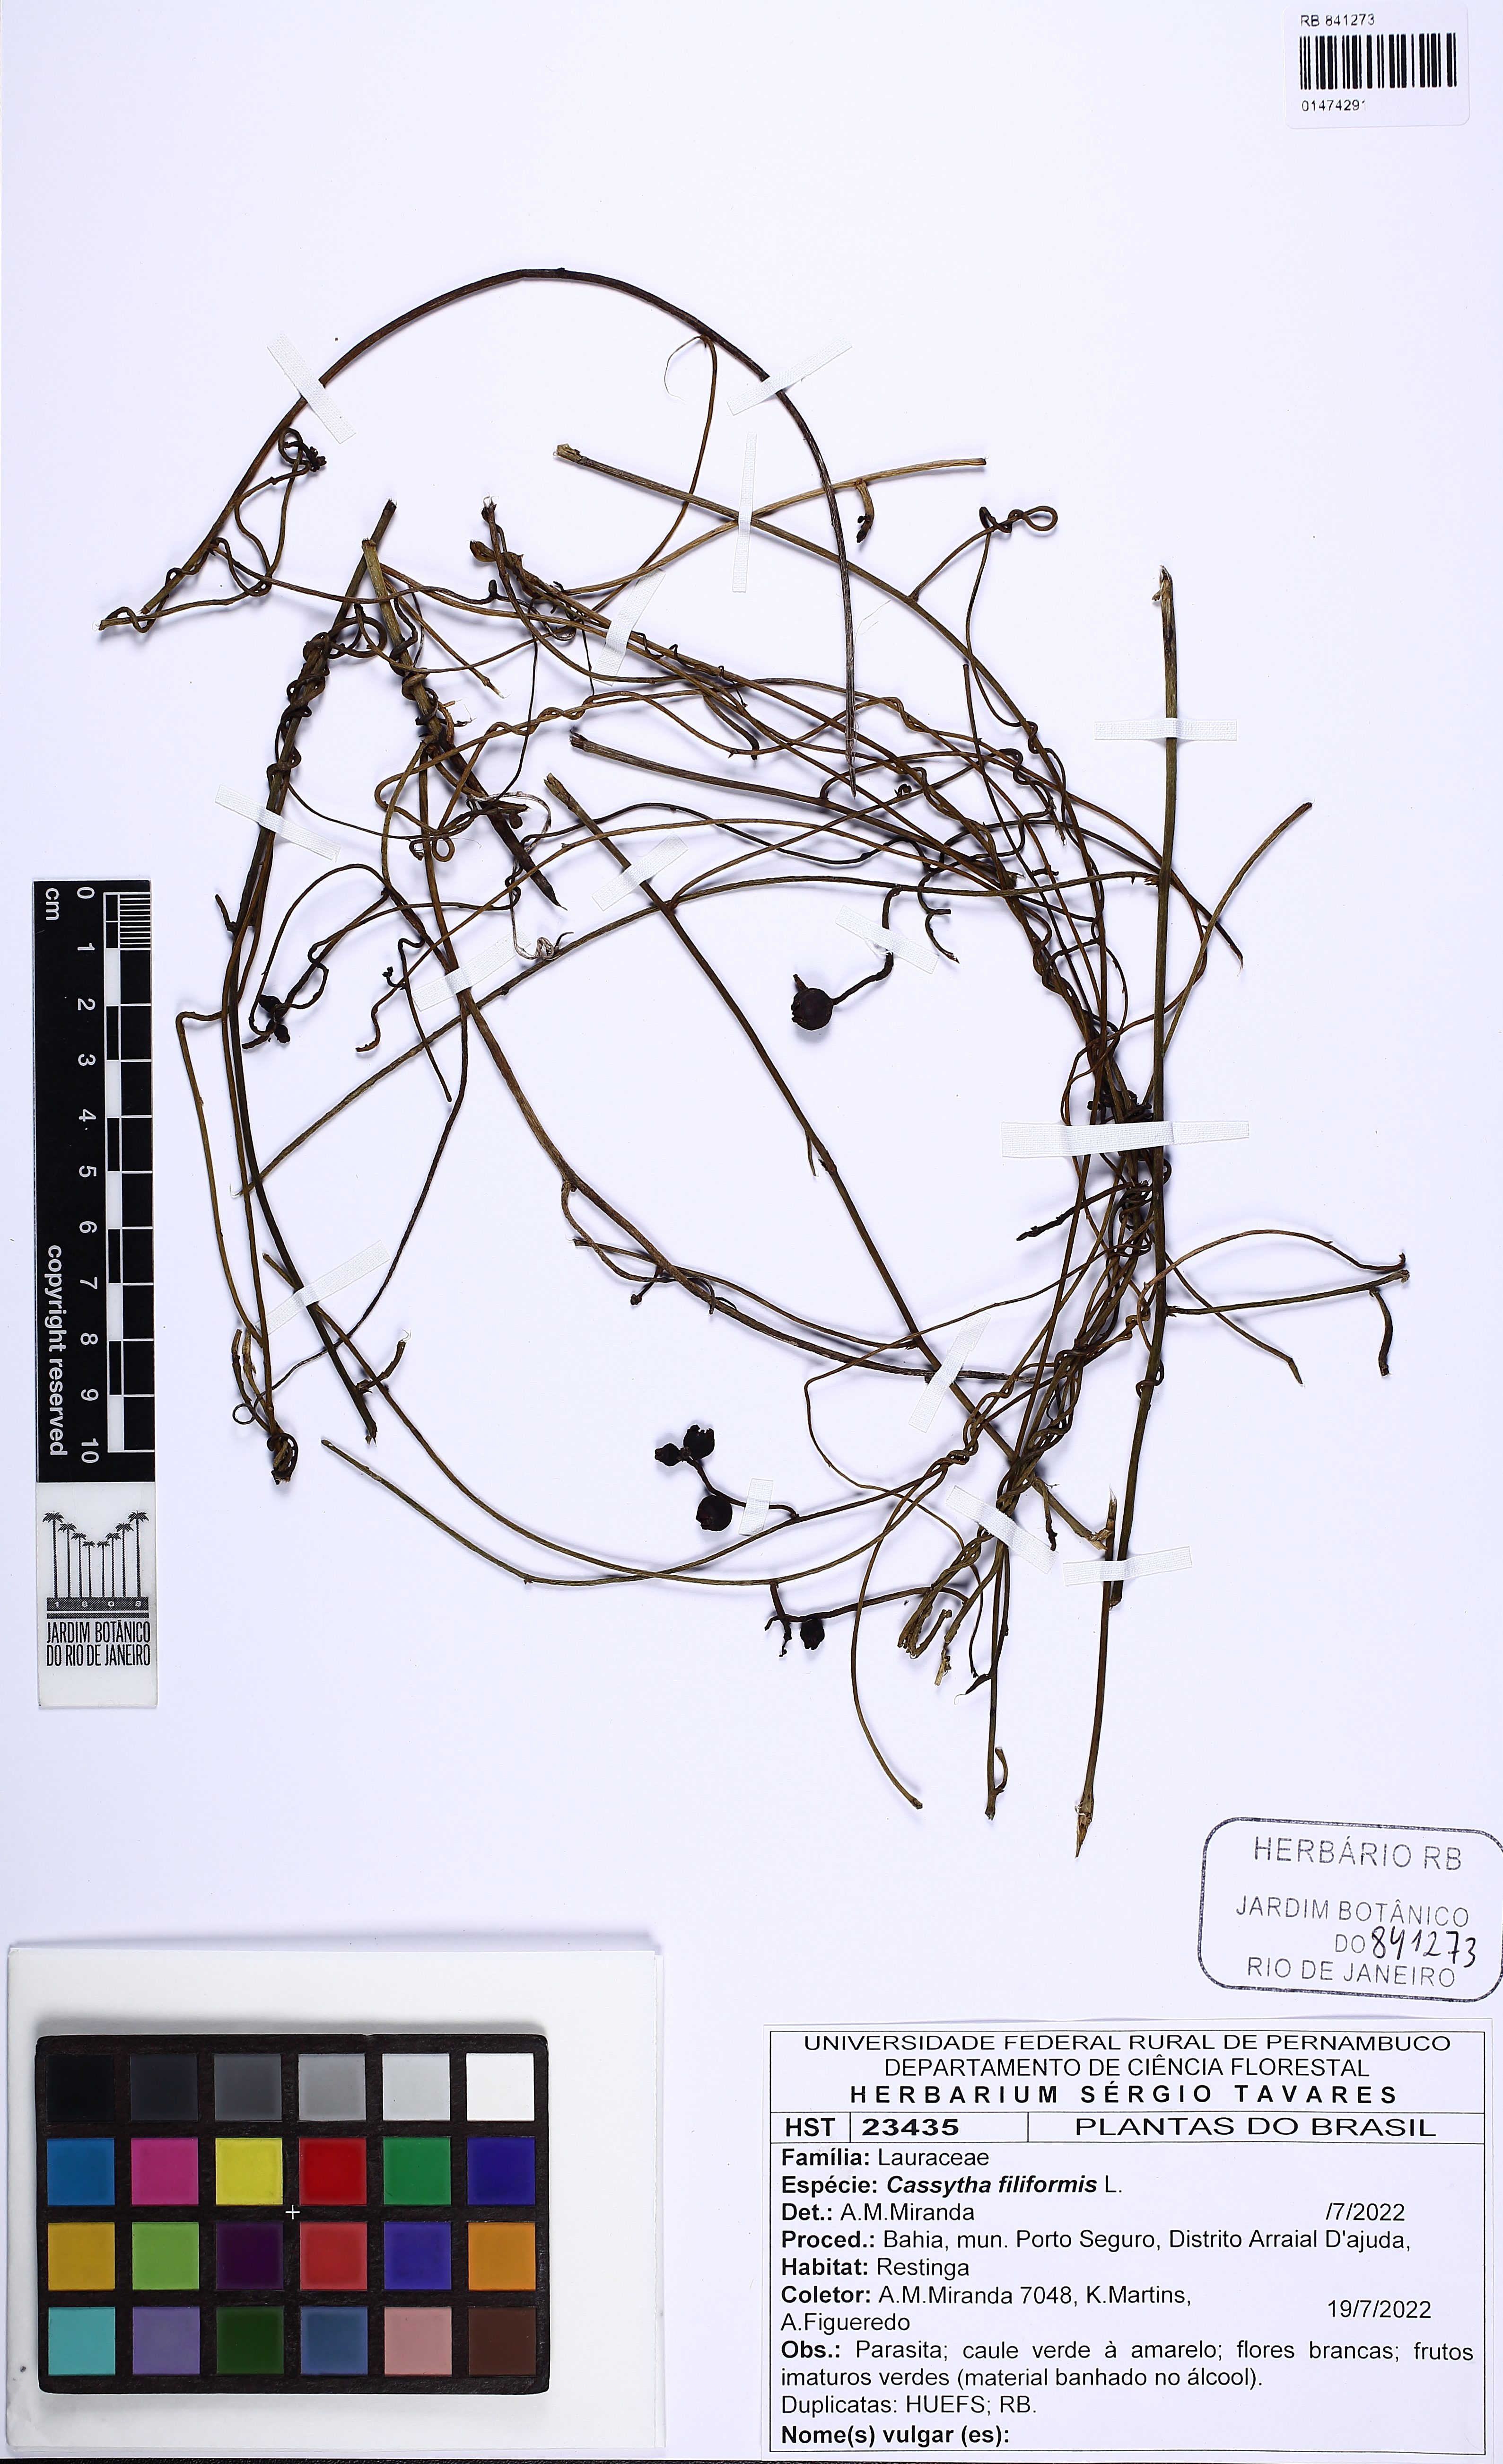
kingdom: Plantae
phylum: Tracheophyta
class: Magnoliopsida
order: Laurales
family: Lauraceae
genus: Cassytha
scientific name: Cassytha filiformis
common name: Dodder-laurel
